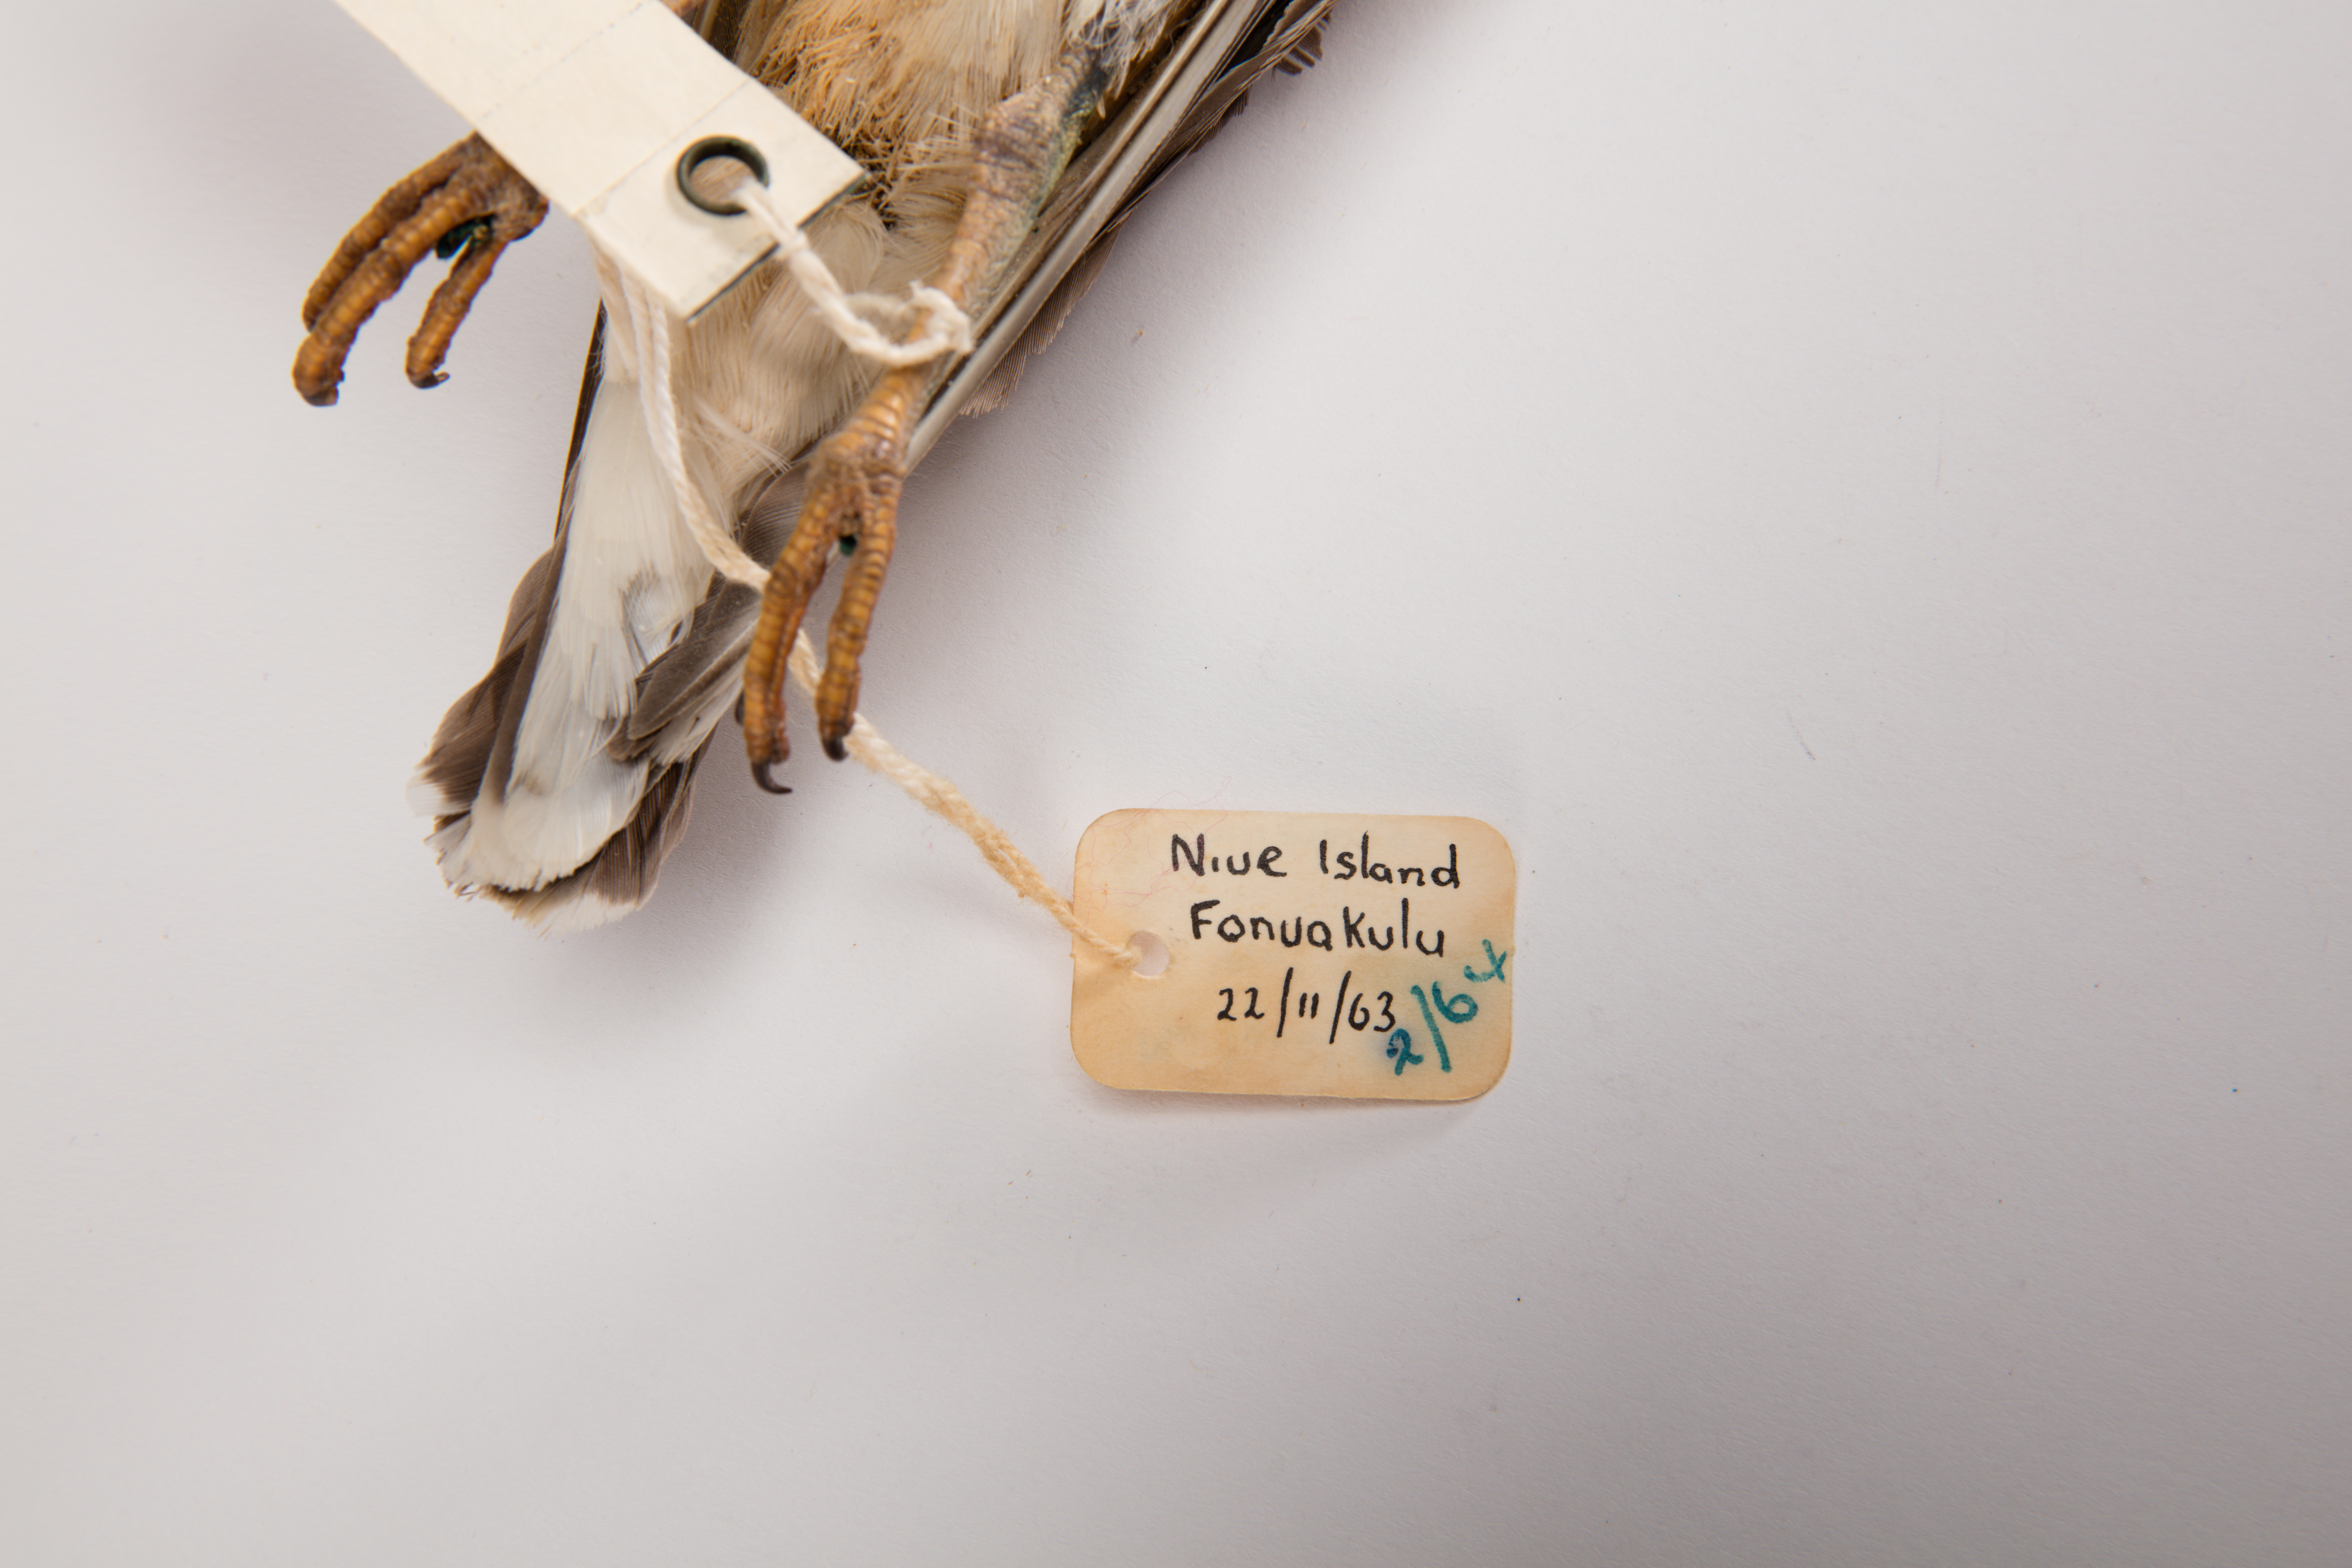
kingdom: Animalia
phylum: Chordata
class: Aves
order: Charadriiformes
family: Scolopacidae
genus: Arenaria
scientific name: Arenaria interpres
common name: Ruddy turnstone
